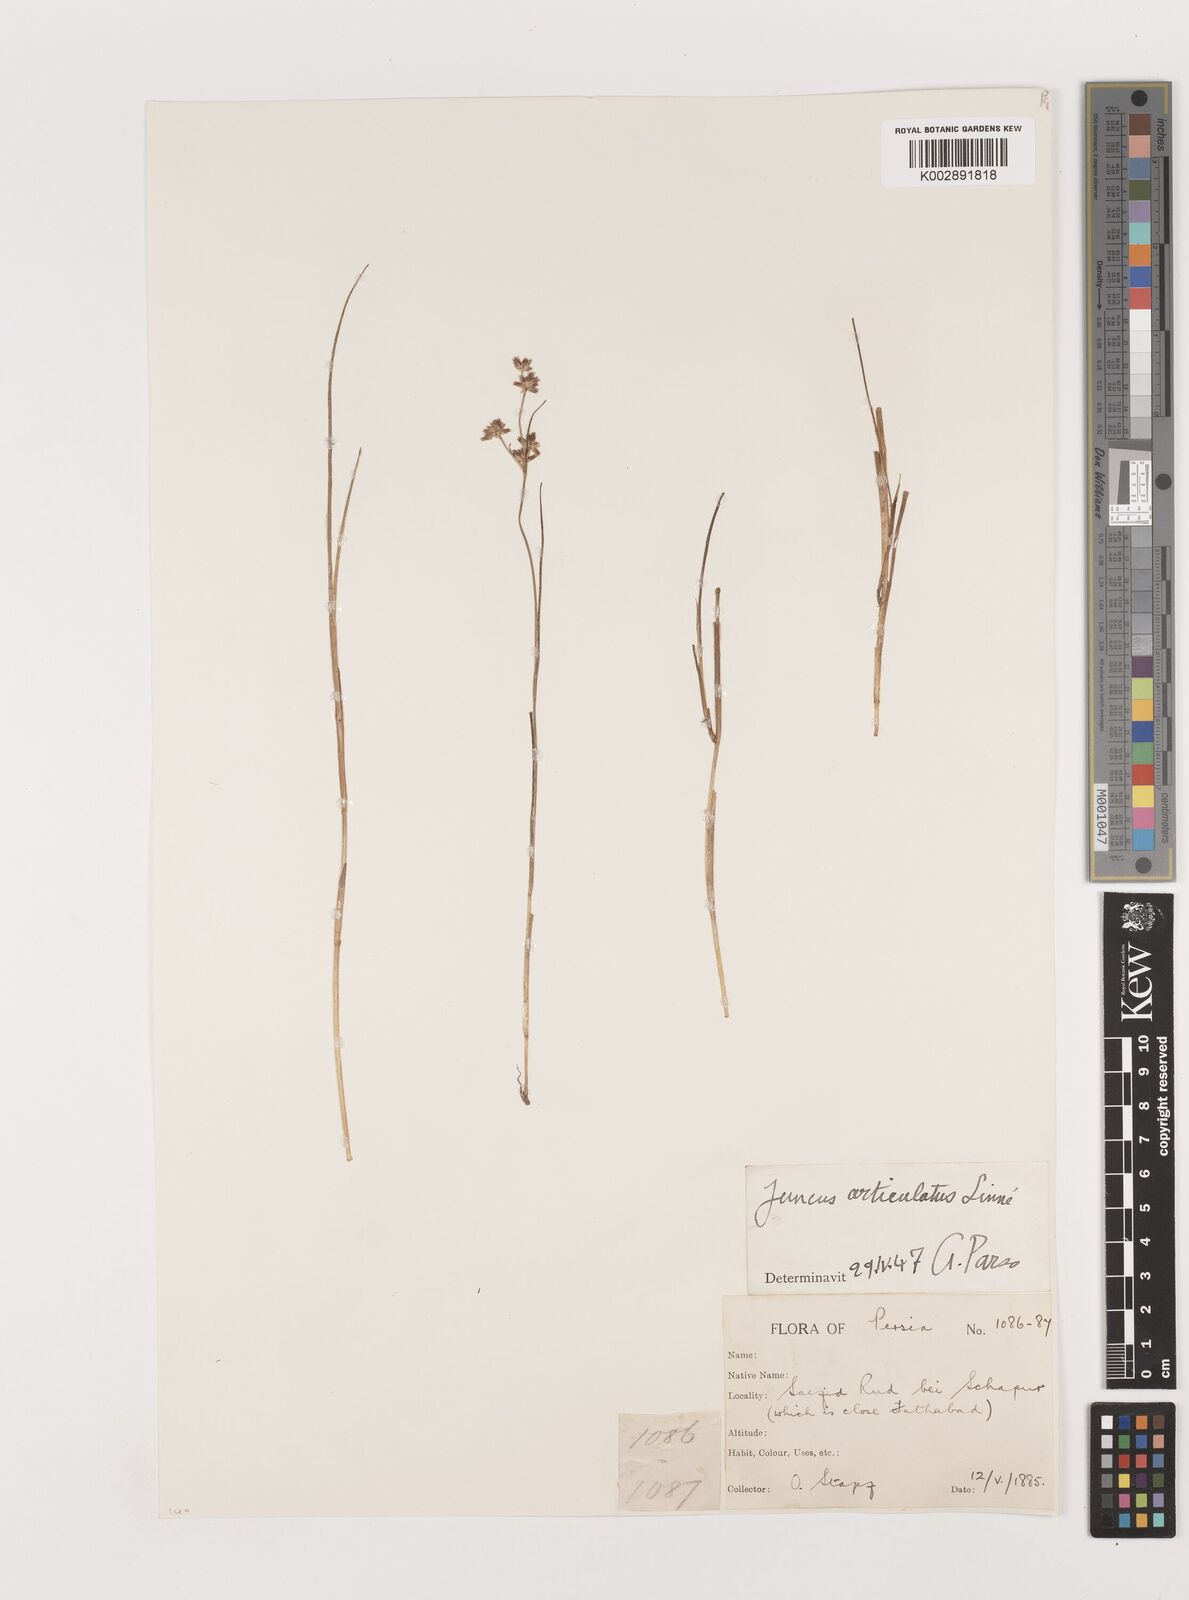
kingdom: Plantae
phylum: Tracheophyta
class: Liliopsida
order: Poales
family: Juncaceae
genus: Juncus
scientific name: Juncus articulatus
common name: Jointed rush
